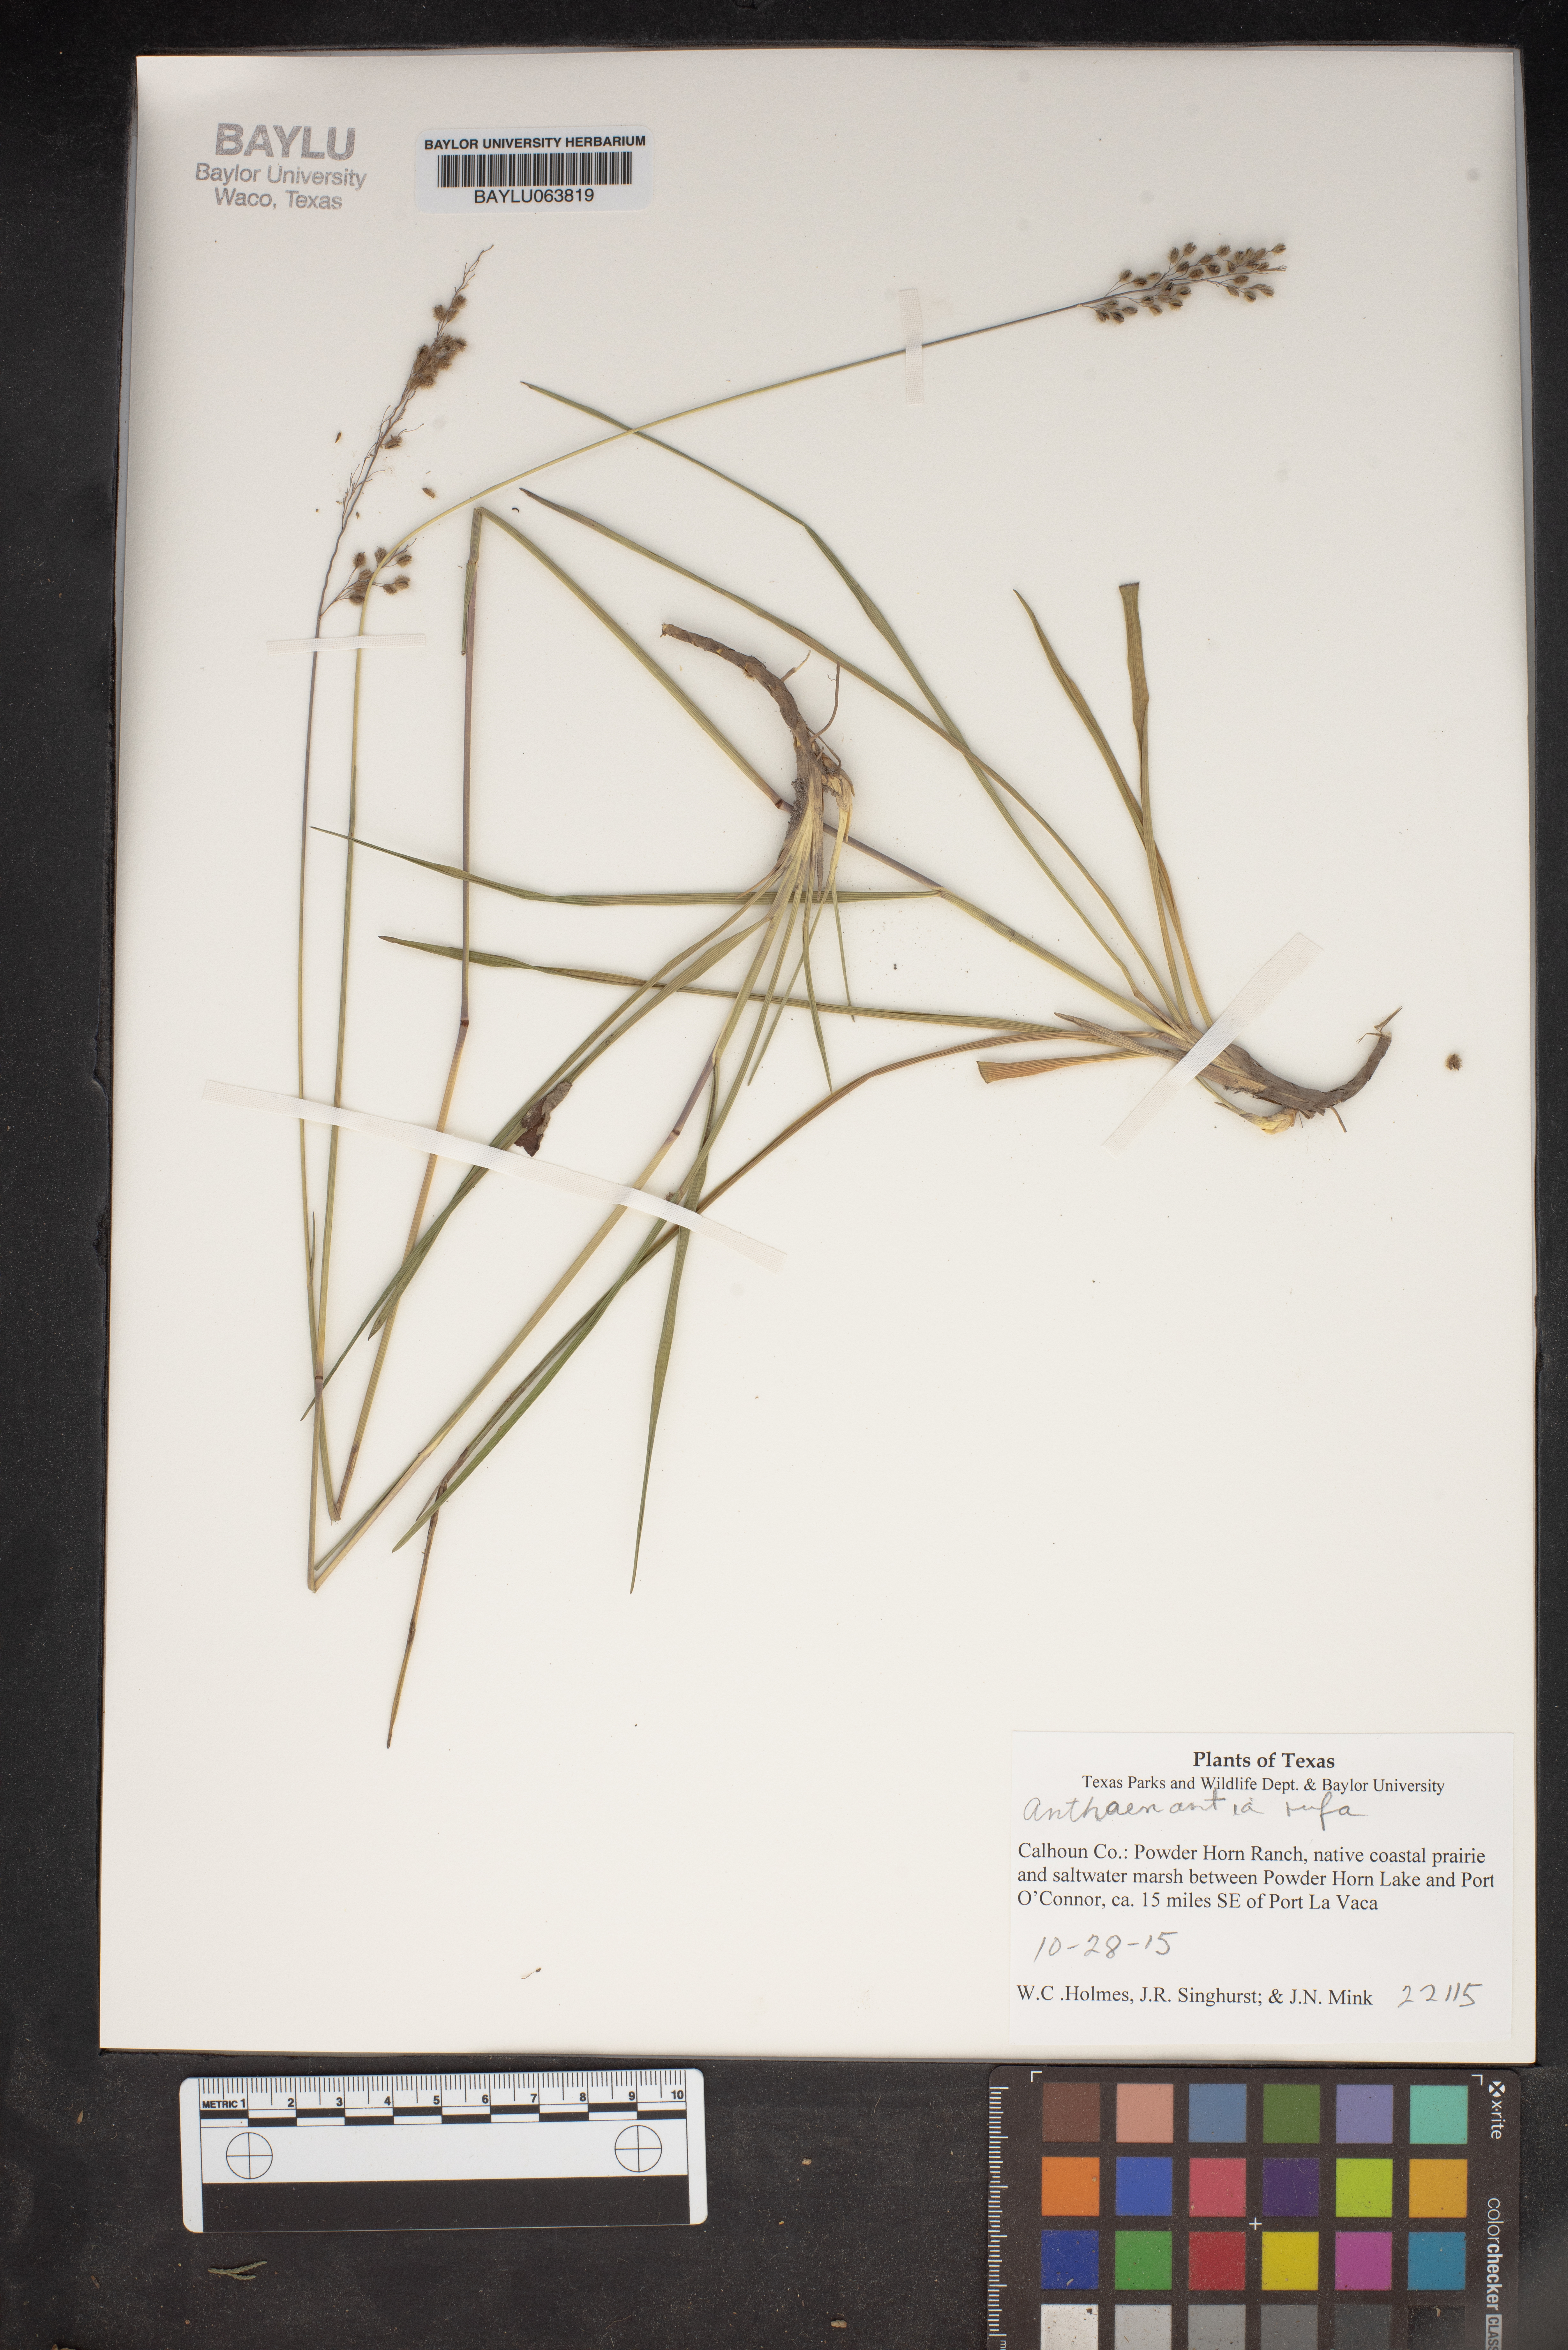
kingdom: Plantae
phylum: Tracheophyta
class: Liliopsida
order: Poales
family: Poaceae
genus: Anthenantia
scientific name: Anthenantia rufa
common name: Purple silkyscale
